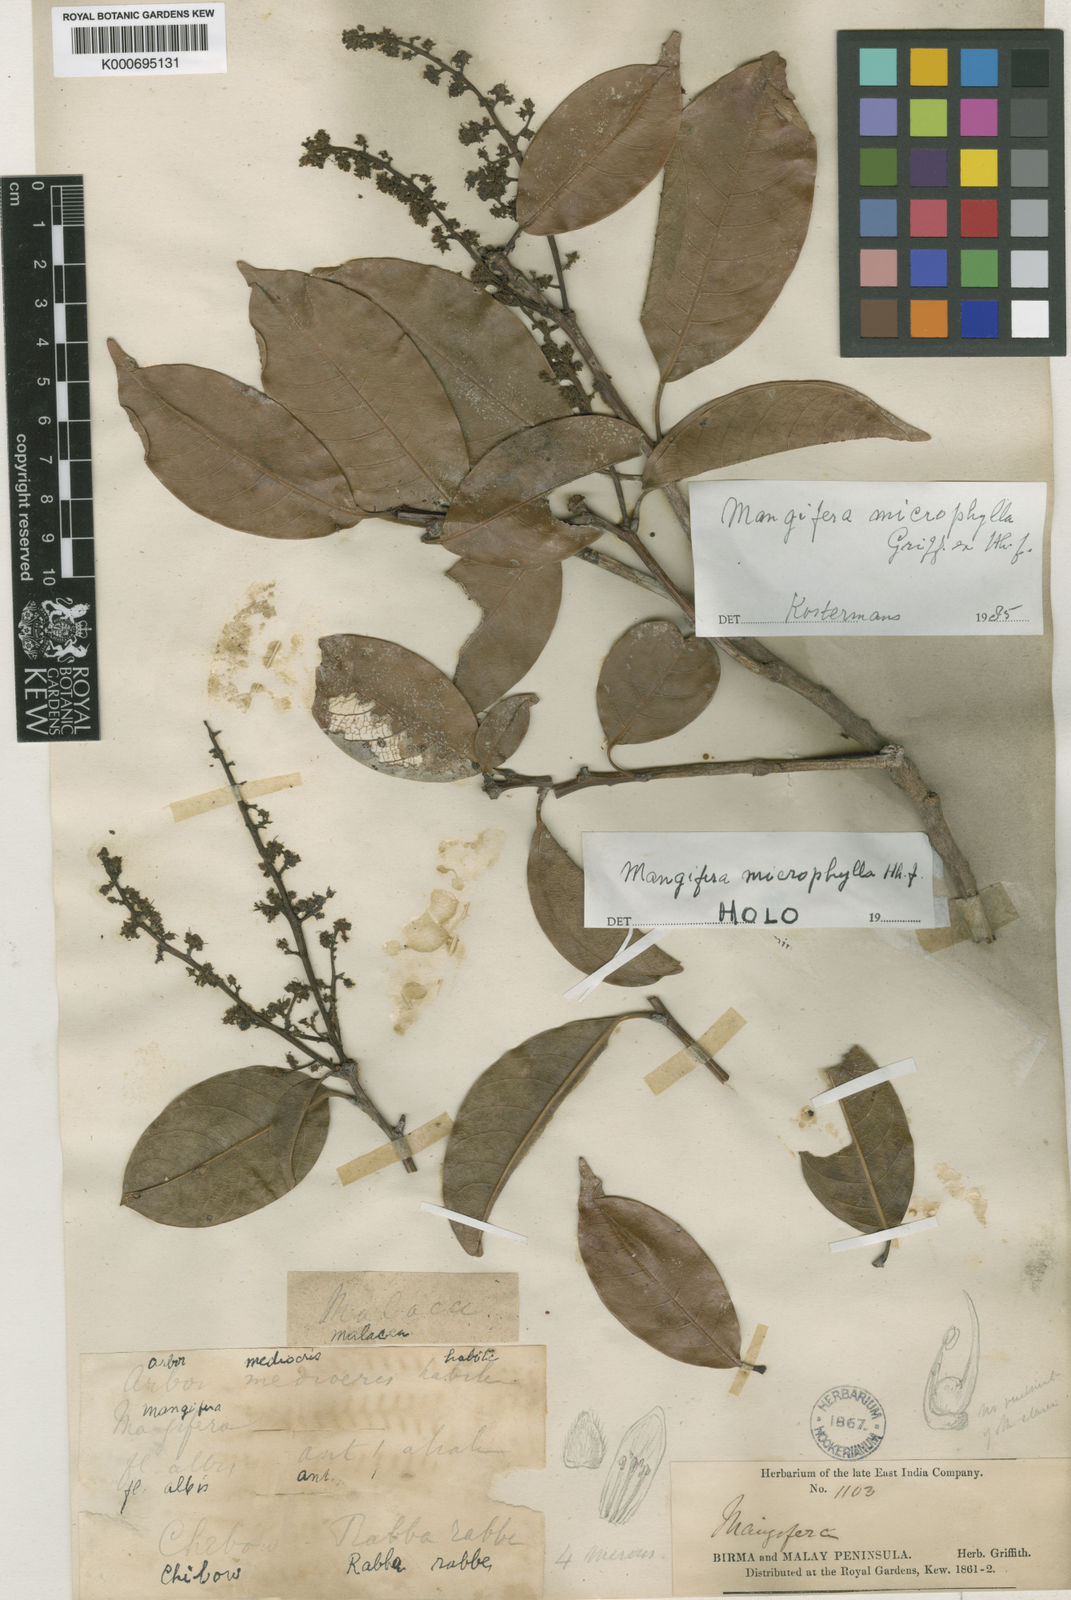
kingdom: Plantae
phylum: Tracheophyta
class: Magnoliopsida
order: Sapindales
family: Anacardiaceae
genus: Mangifera
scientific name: Mangifera griffithii
